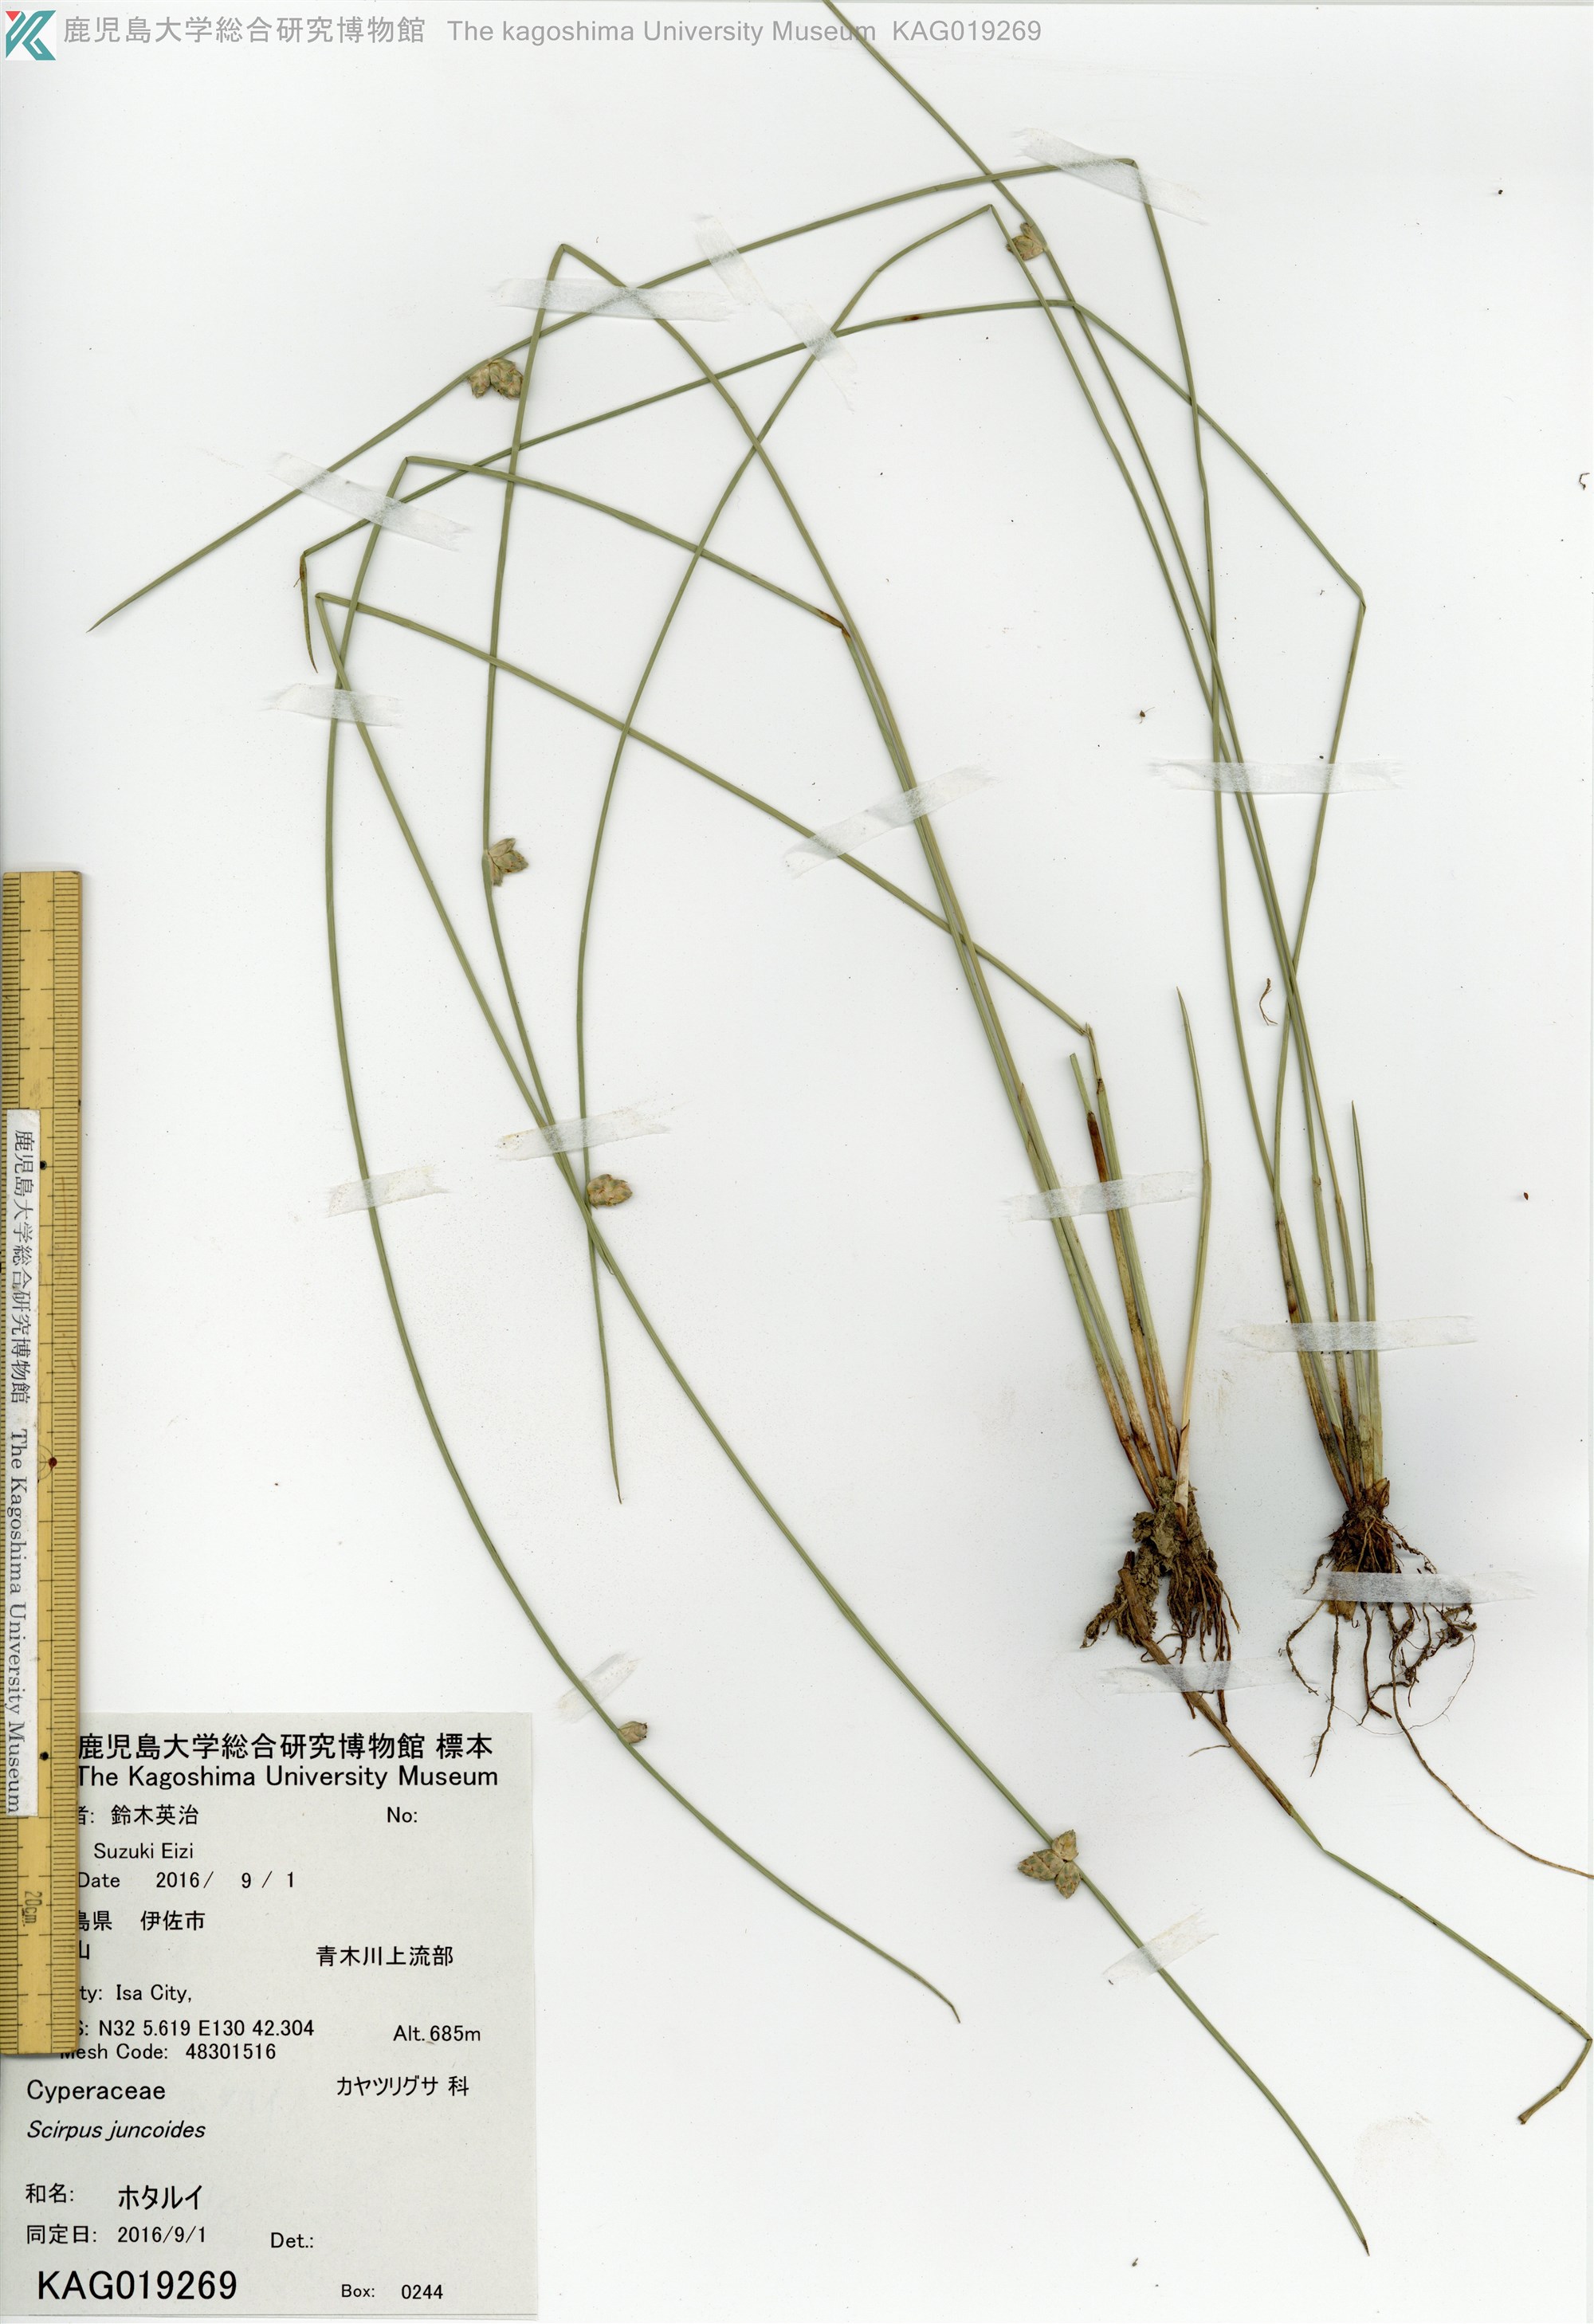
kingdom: Plantae
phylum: Tracheophyta
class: Liliopsida
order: Poales
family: Cyperaceae
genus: Schoenoplectiella
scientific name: Schoenoplectiella hotarui
